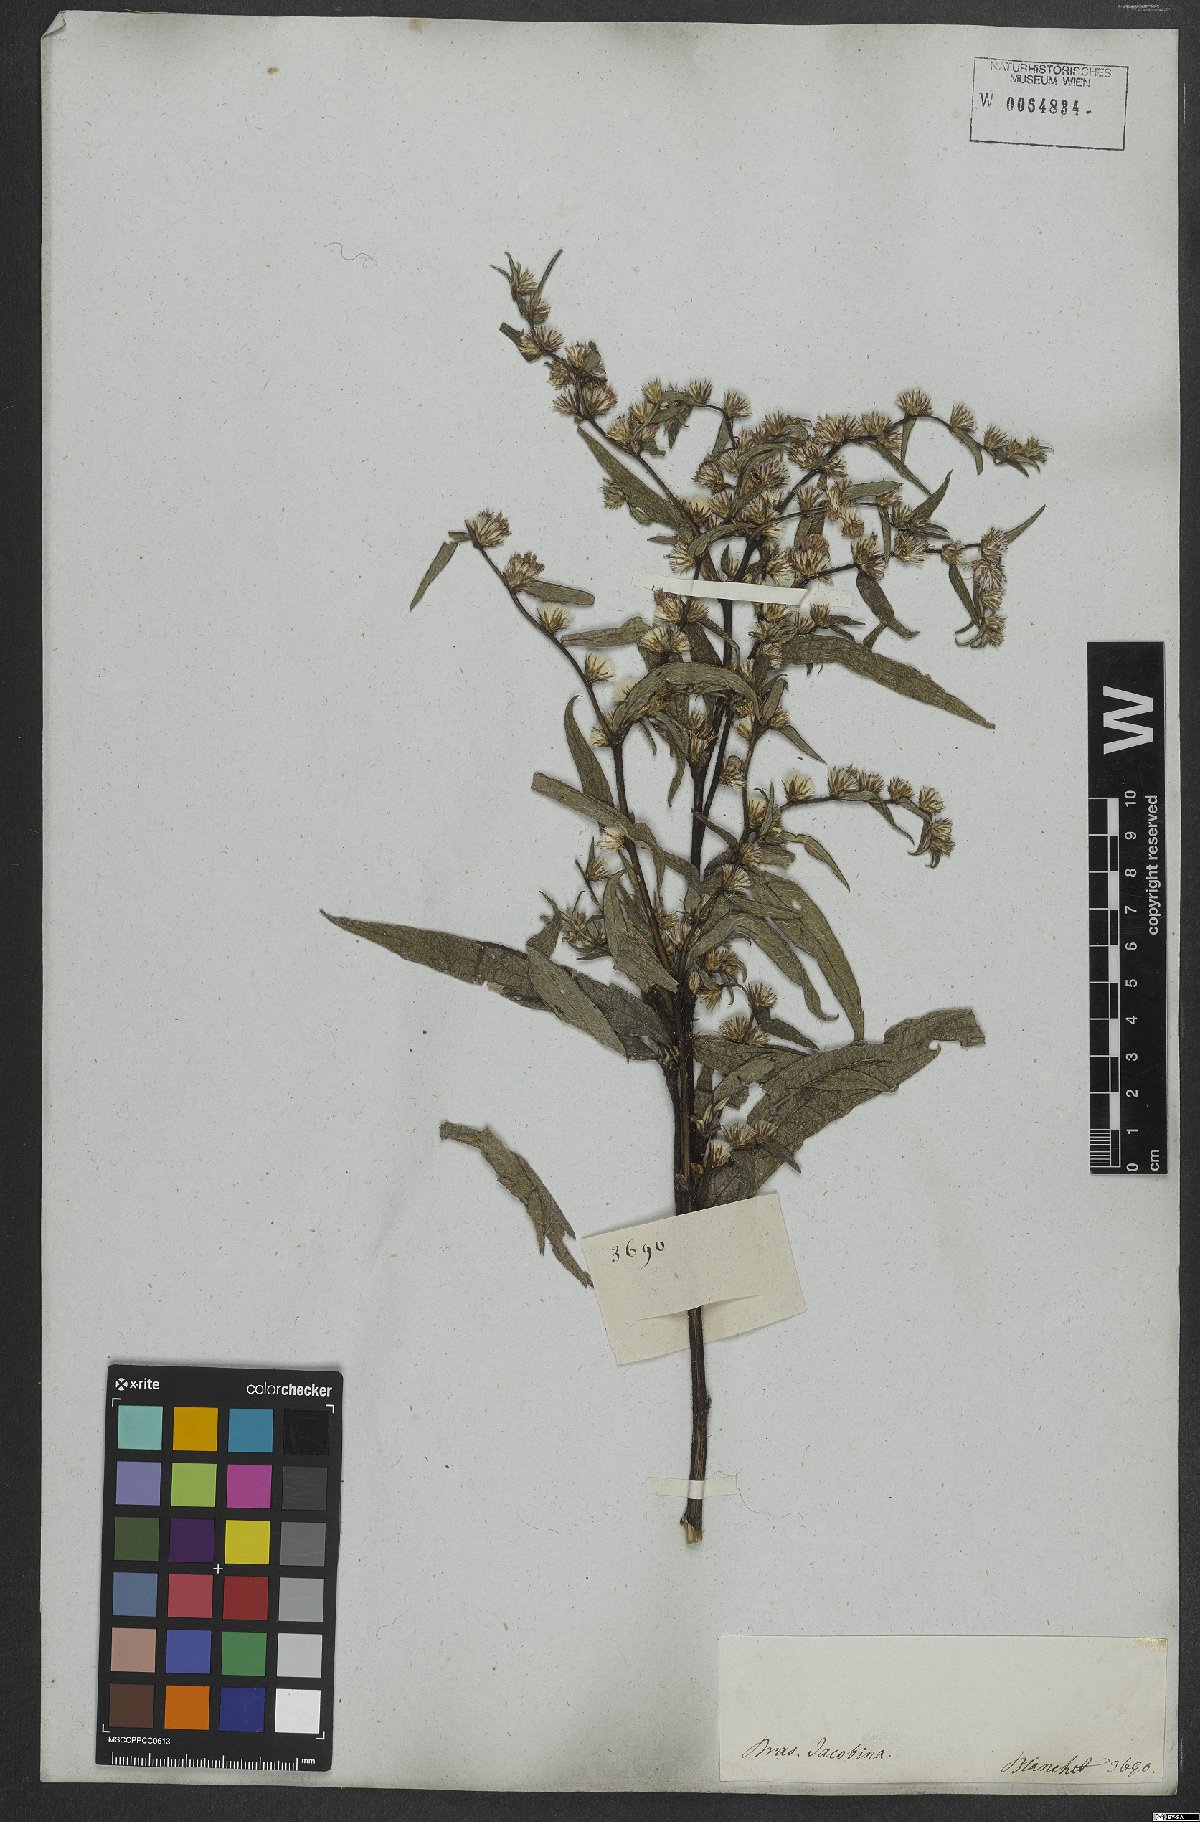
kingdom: Plantae
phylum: Tracheophyta
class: Magnoliopsida
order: Asterales
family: Asteraceae
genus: Lepidaploa
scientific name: Lepidaploa sericea
